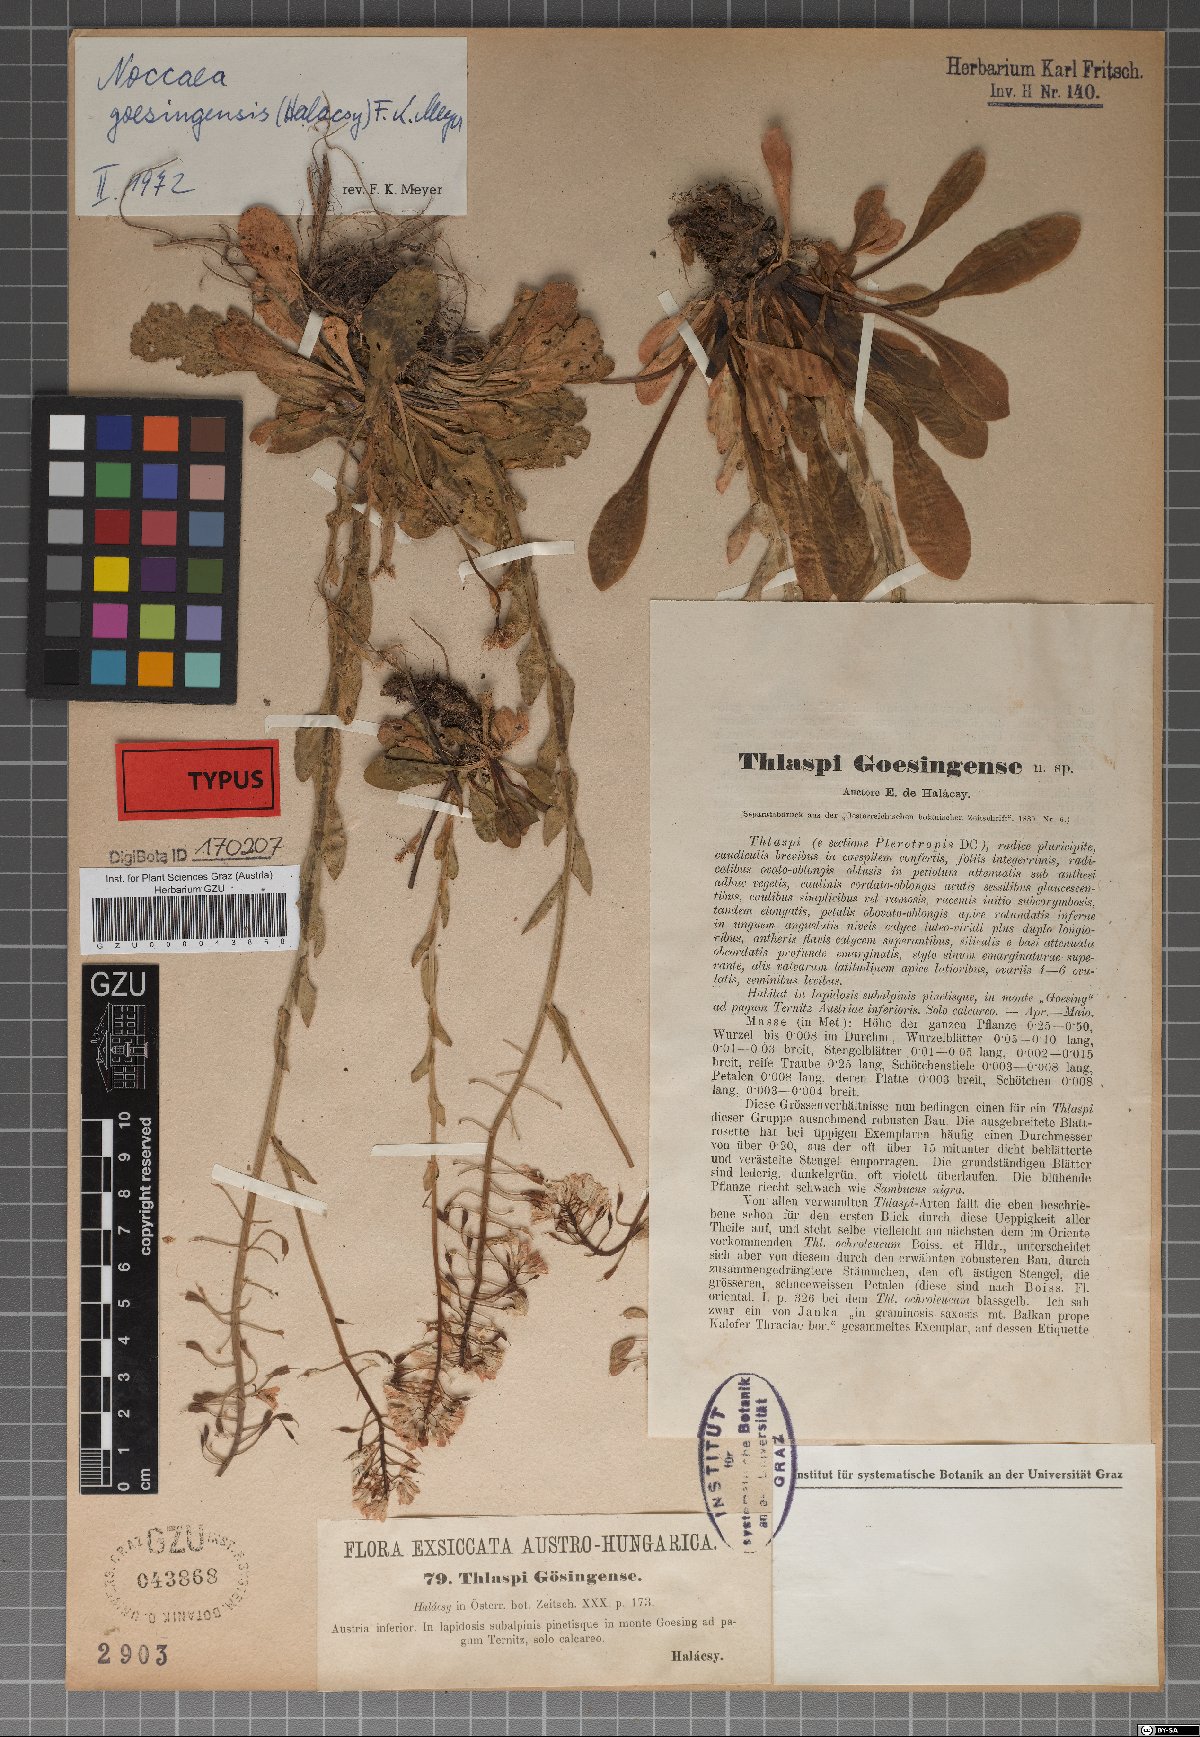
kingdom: Plantae
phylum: Tracheophyta
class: Magnoliopsida
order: Brassicales
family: Brassicaceae
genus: Noccaea
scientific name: Noccaea goesingensis
